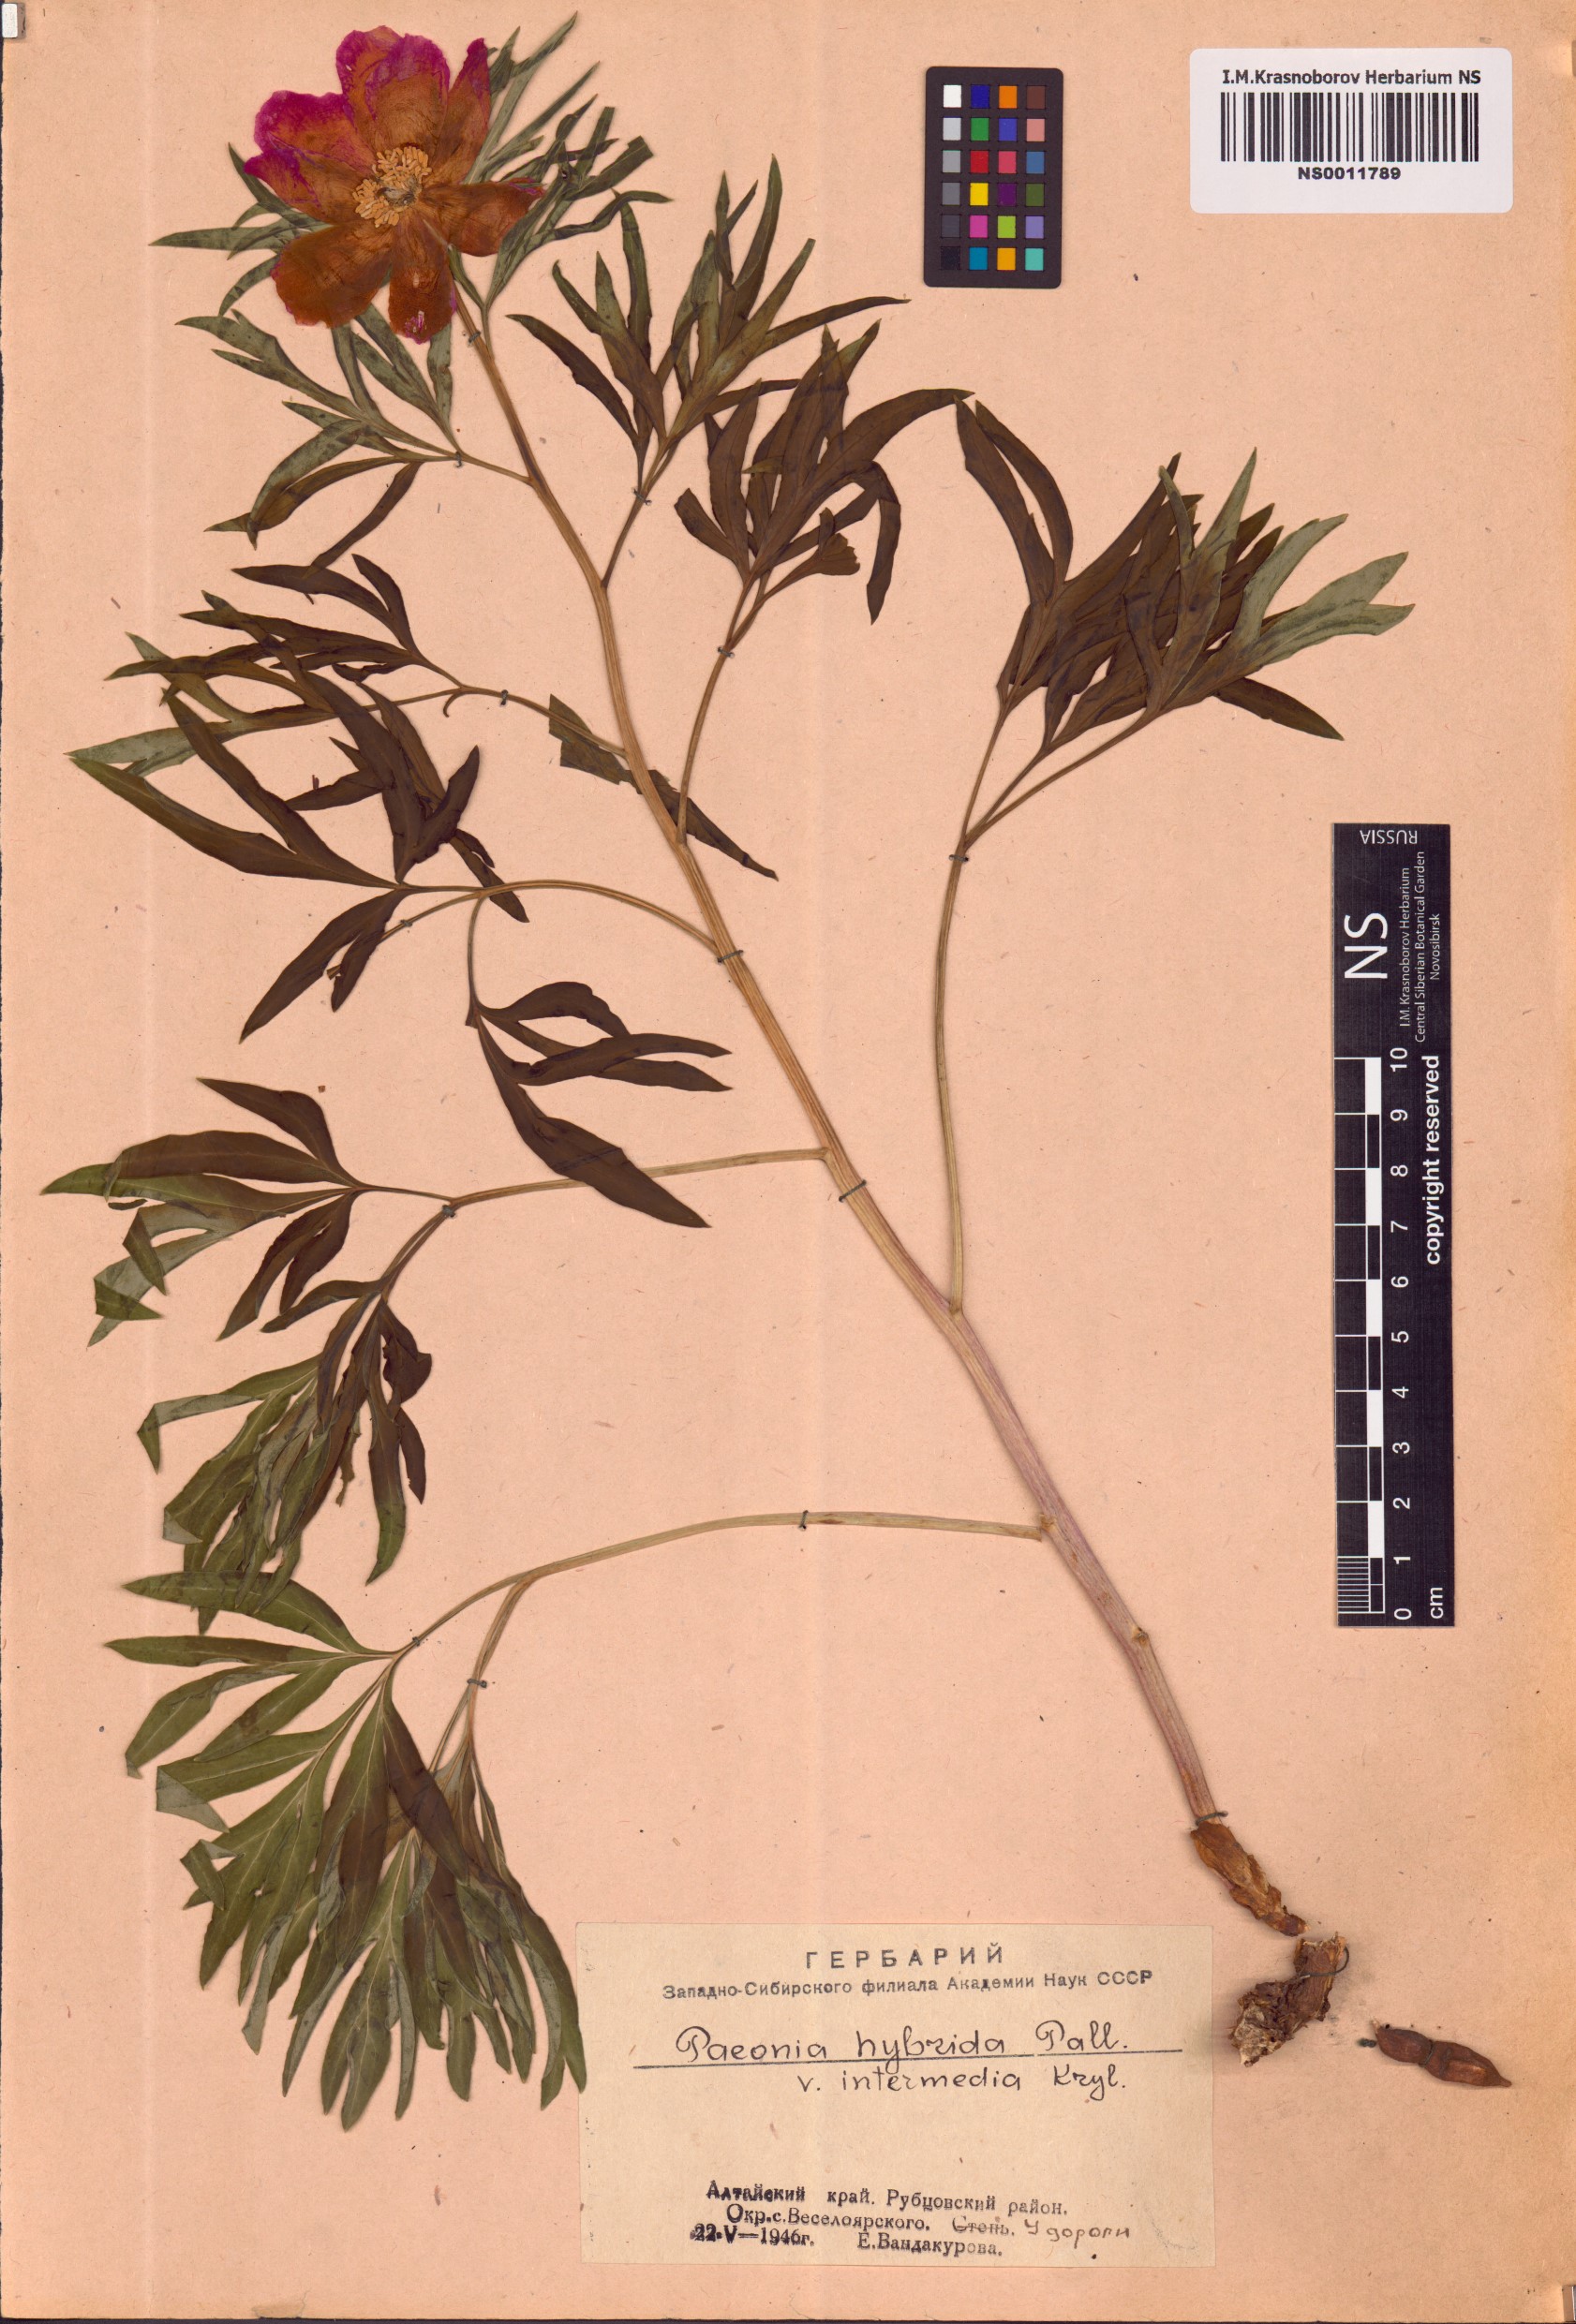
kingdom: Plantae
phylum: Tracheophyta
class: Magnoliopsida
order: Saxifragales
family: Paeoniaceae
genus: Paeonia
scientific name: Paeonia
